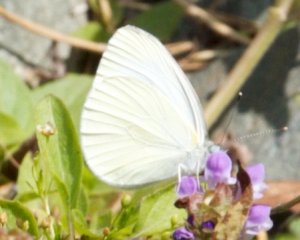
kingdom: Animalia
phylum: Arthropoda
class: Insecta
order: Lepidoptera
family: Pieridae
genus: Pieris
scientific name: Pieris oleracea
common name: Mustard White
